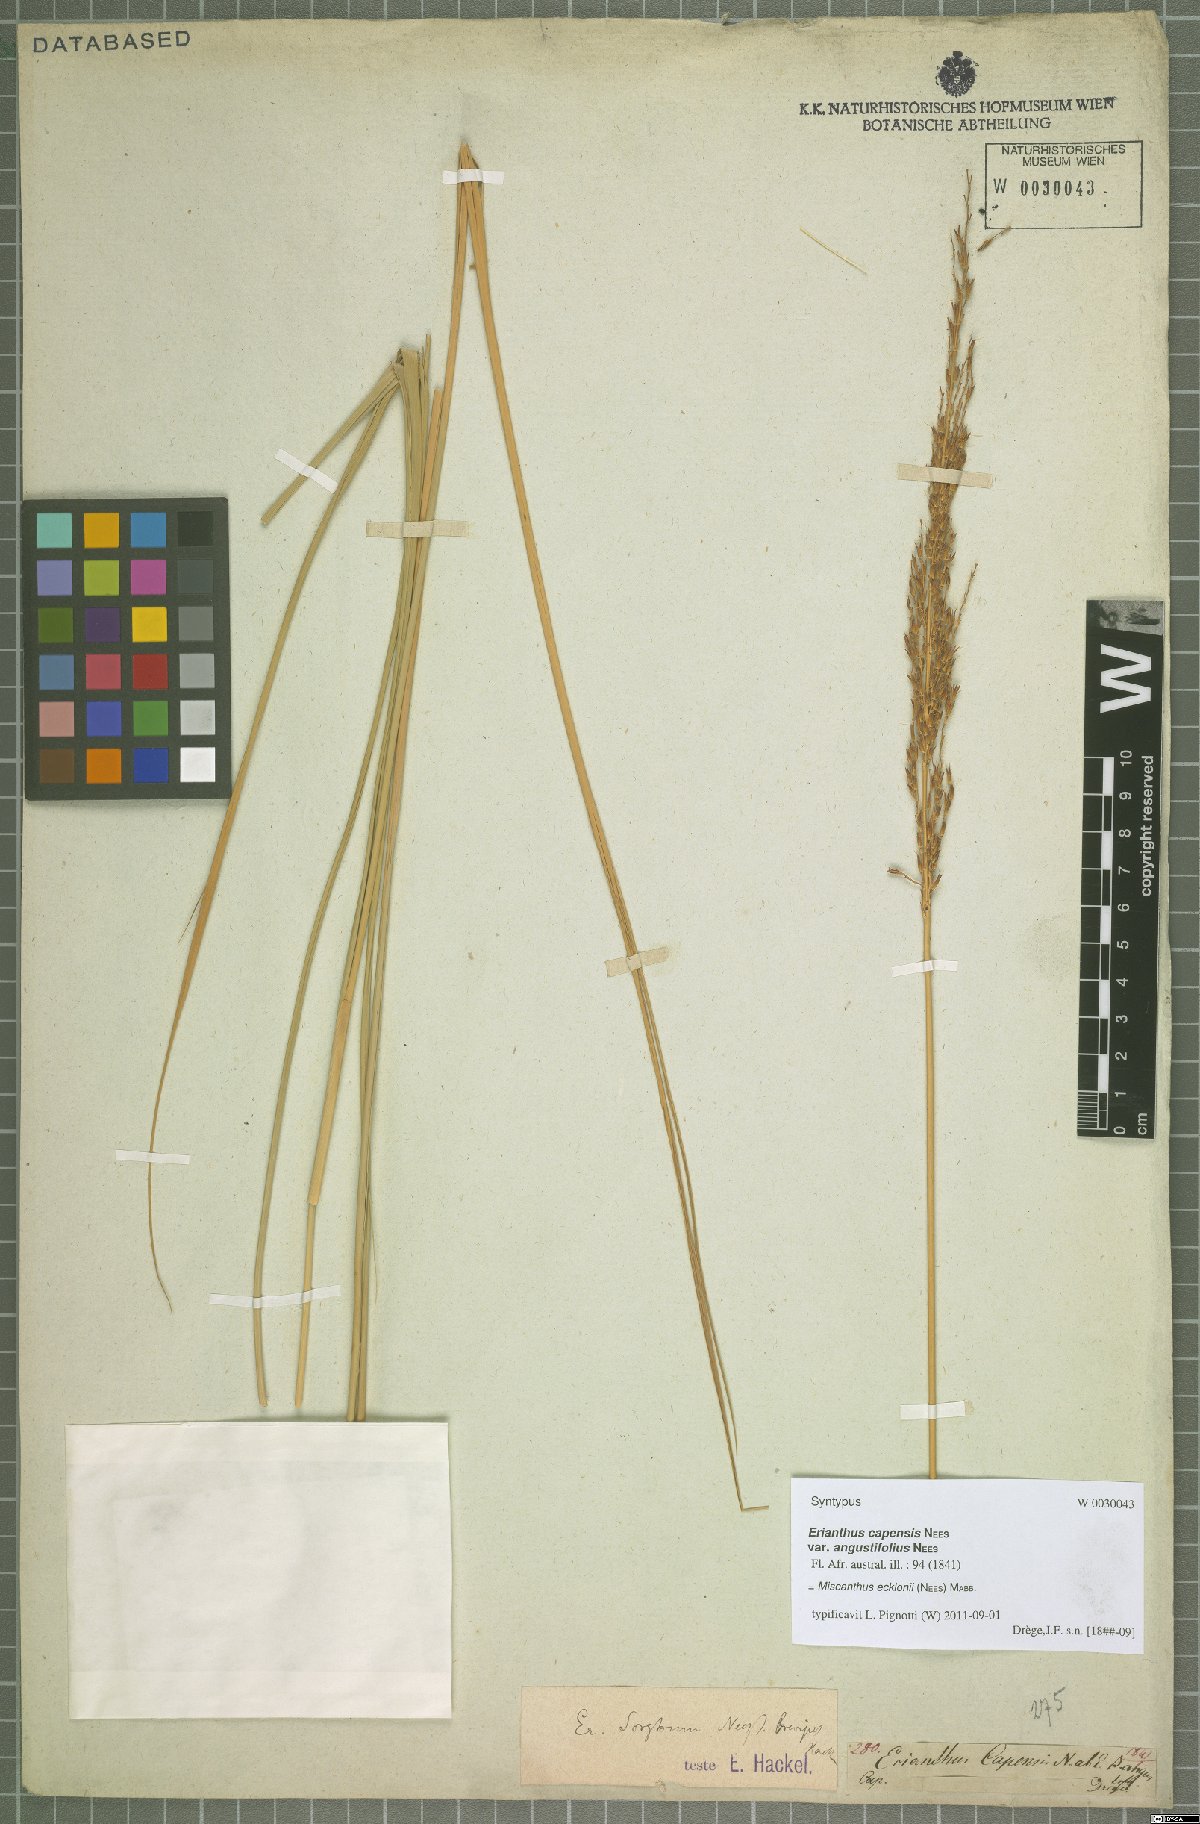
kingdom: Plantae
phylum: Tracheophyta
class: Liliopsida
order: Poales
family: Poaceae
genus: Miscanthus
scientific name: Miscanthus ecklonii
